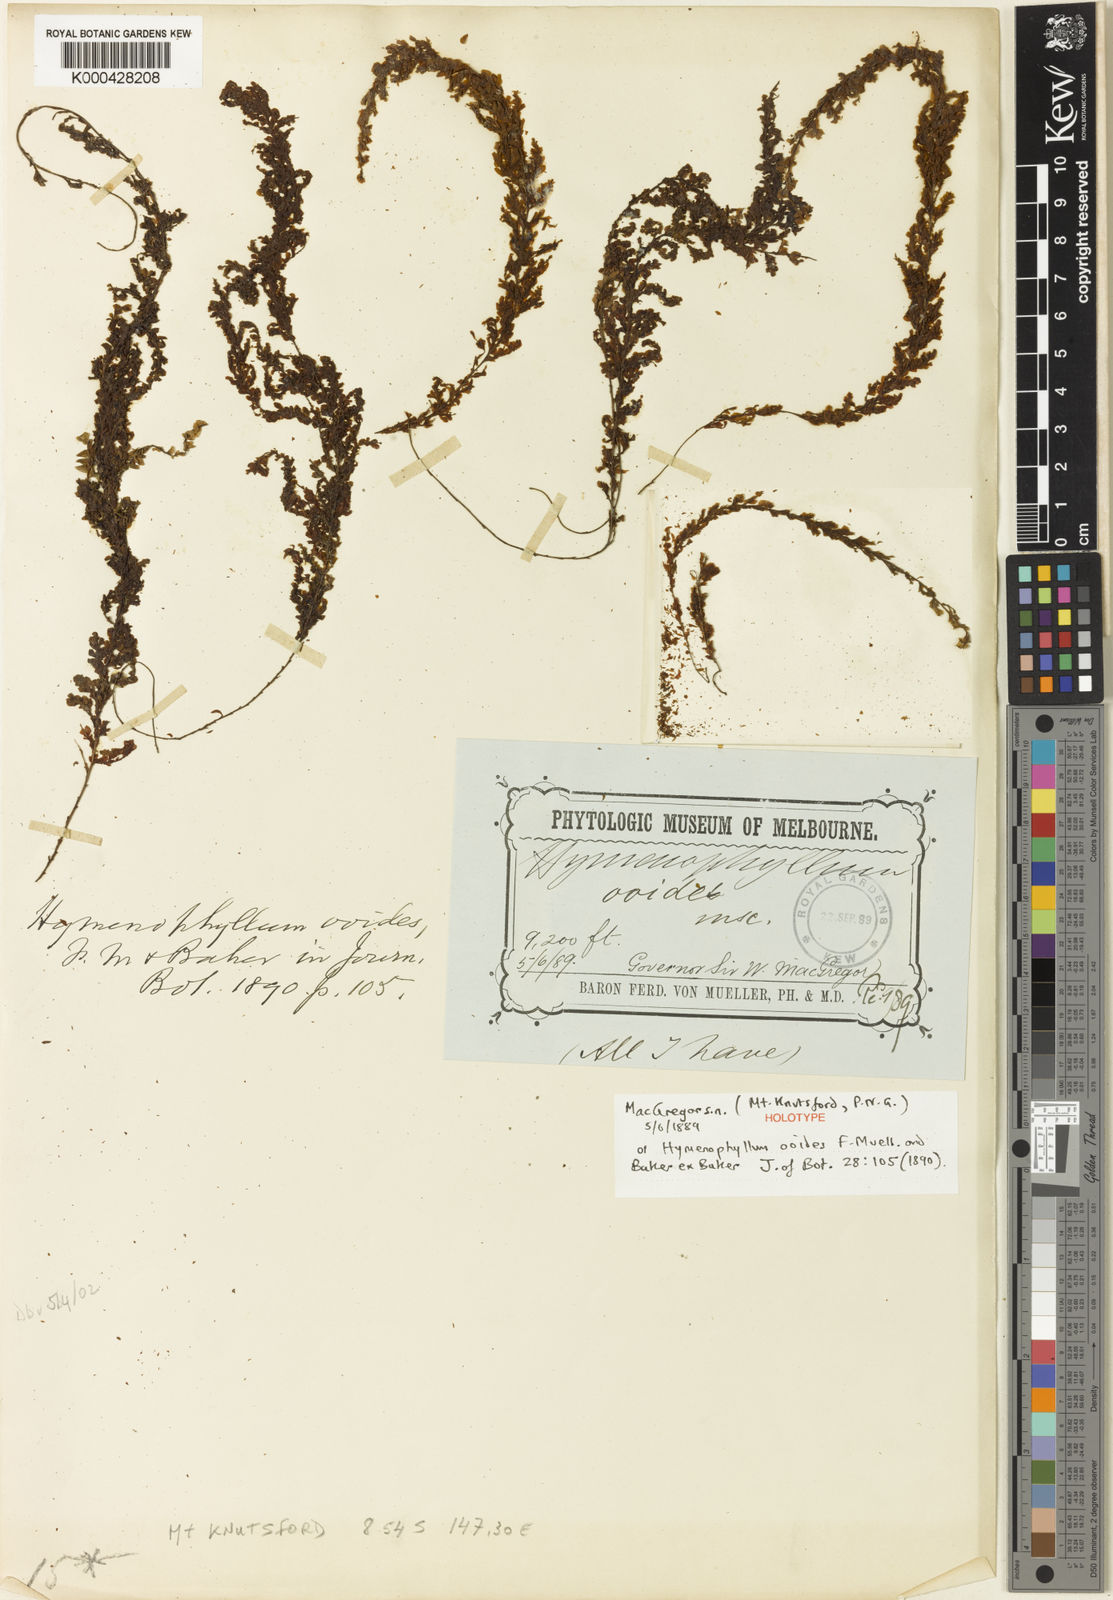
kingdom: Plantae
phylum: Tracheophyta
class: Polypodiopsida
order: Hymenophyllales
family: Hymenophyllaceae
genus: Hymenophyllum
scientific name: Hymenophyllum ooides
